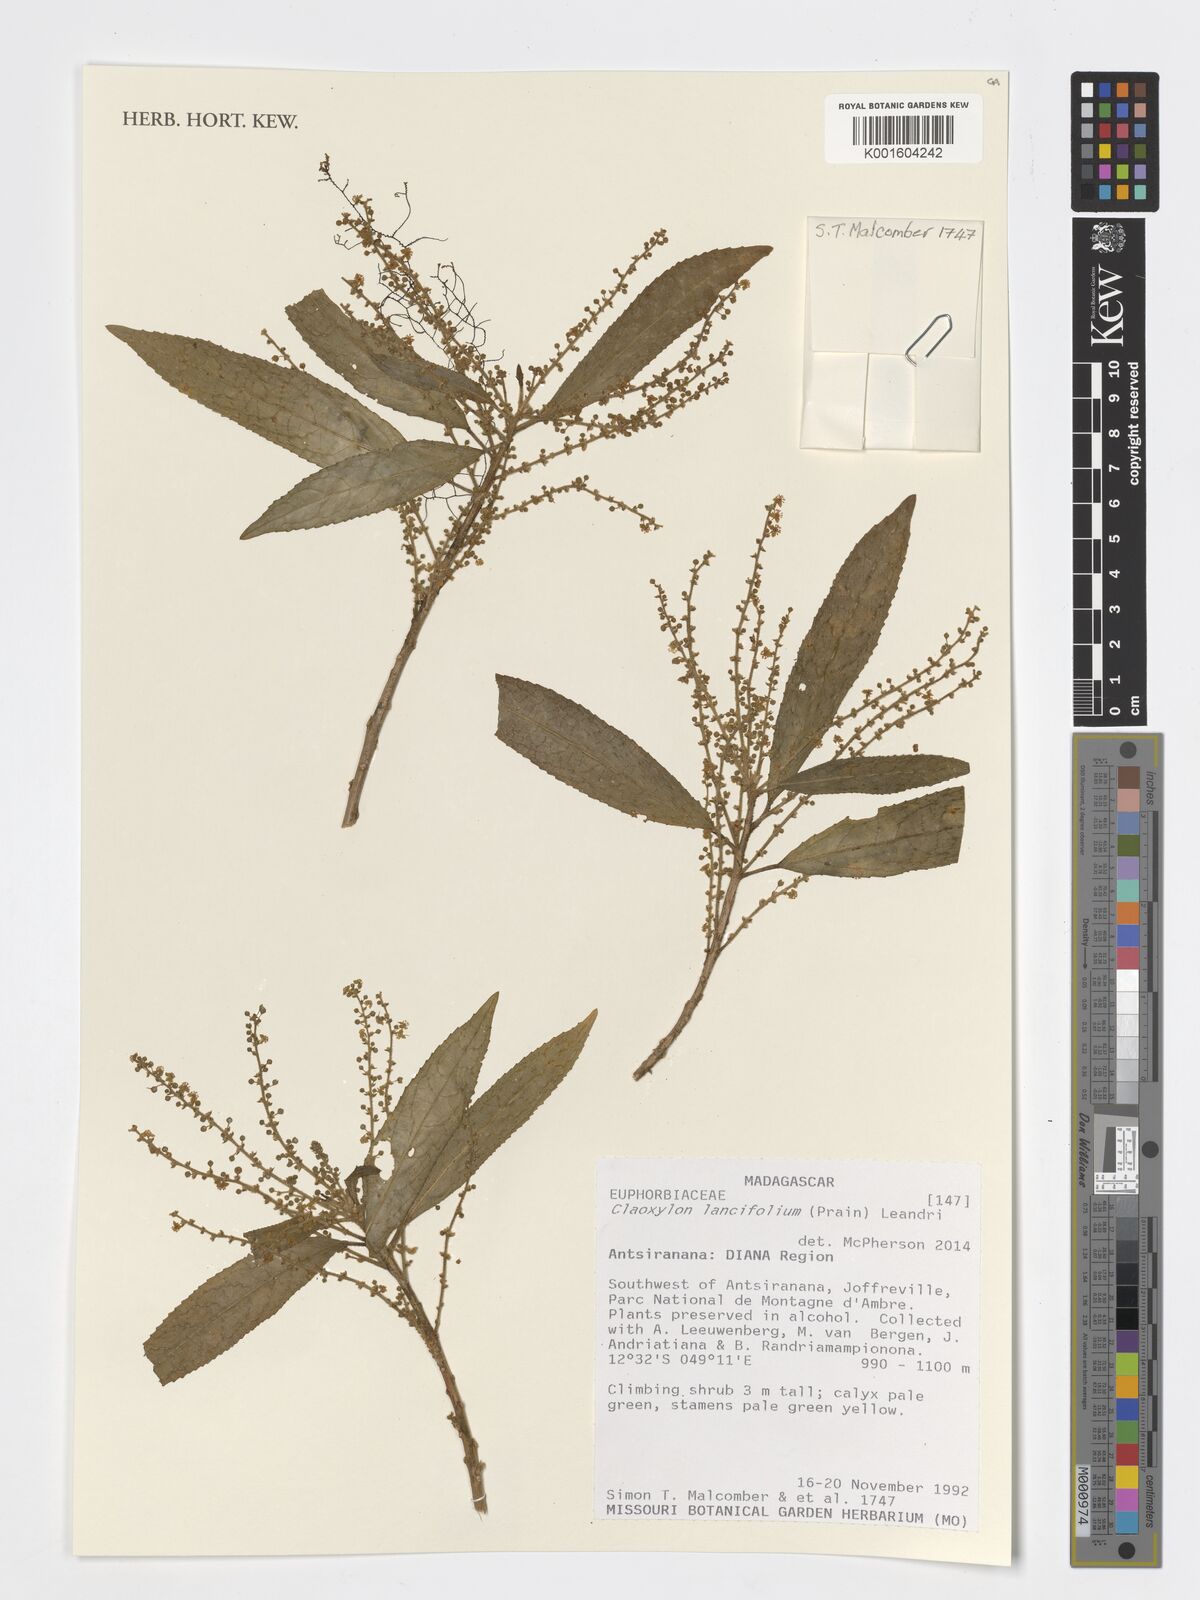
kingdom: Plantae
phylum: Tracheophyta
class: Magnoliopsida
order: Malpighiales
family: Euphorbiaceae
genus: Micrococca
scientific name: Micrococca lancifolia
